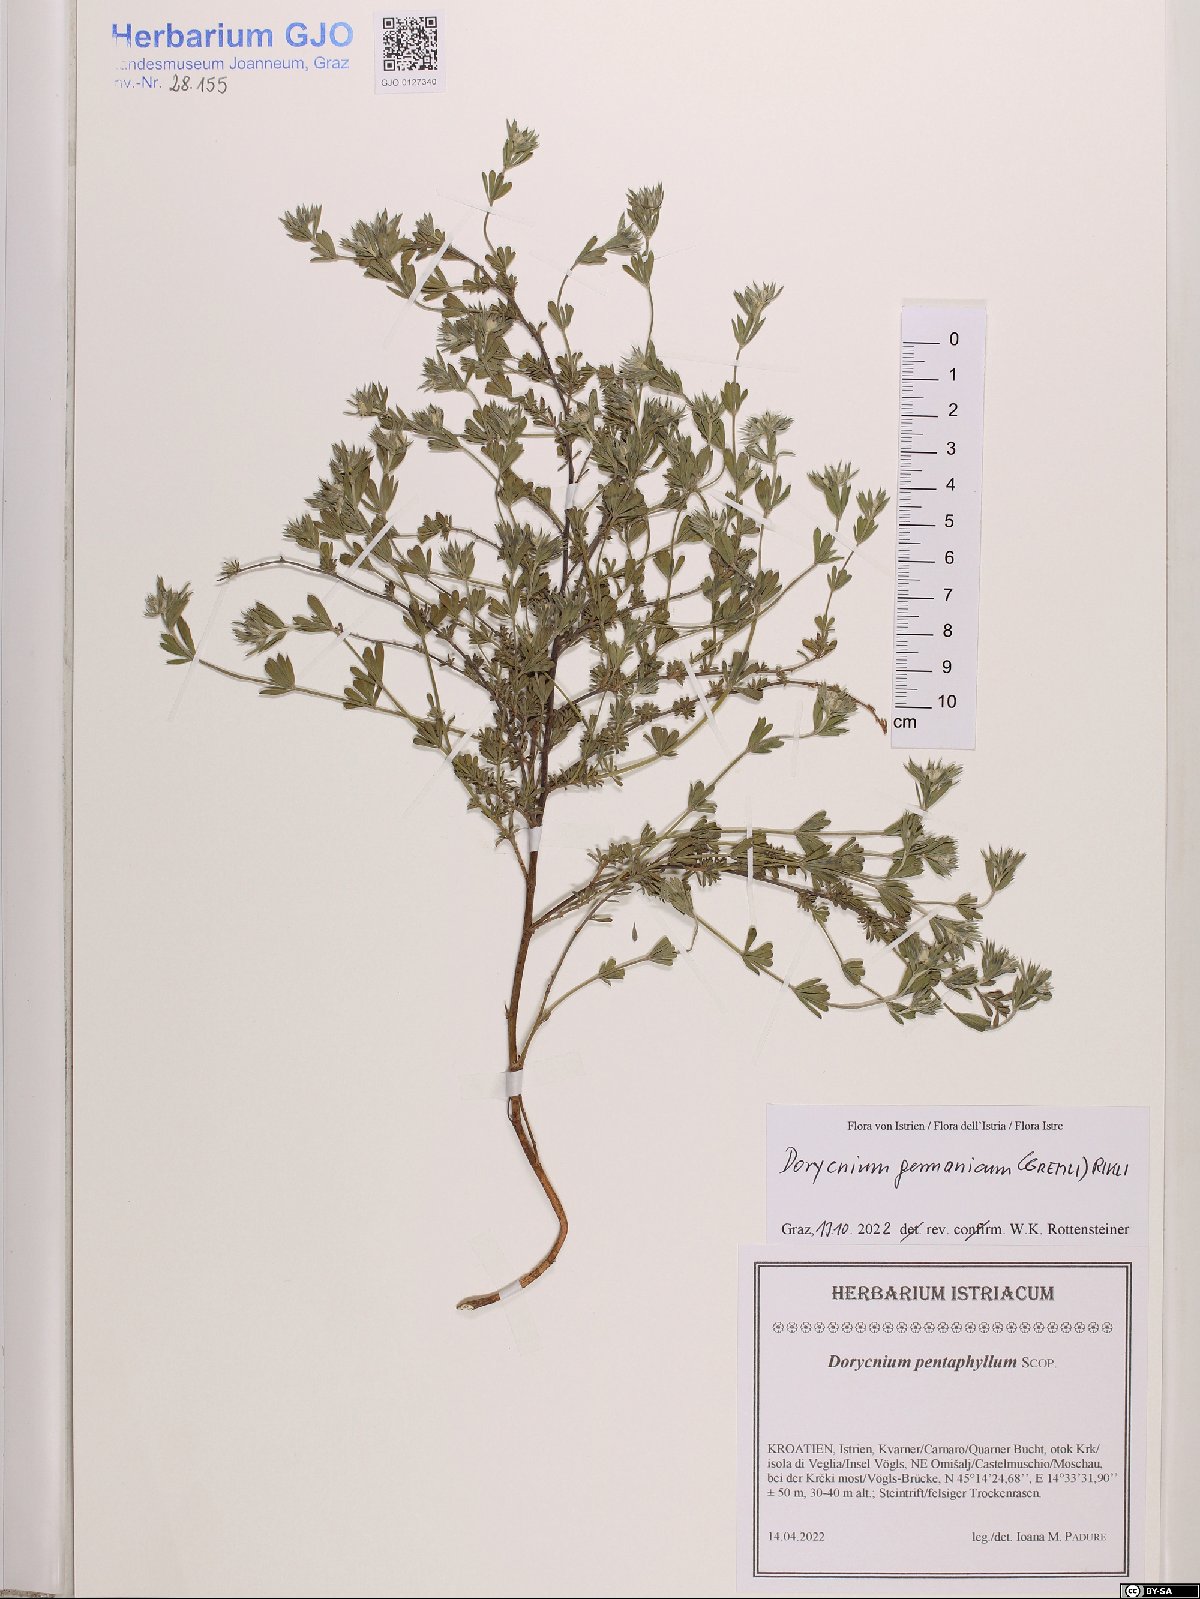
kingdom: Plantae
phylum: Tracheophyta
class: Magnoliopsida
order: Fabales
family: Fabaceae
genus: Lotus
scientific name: Lotus germanicus
